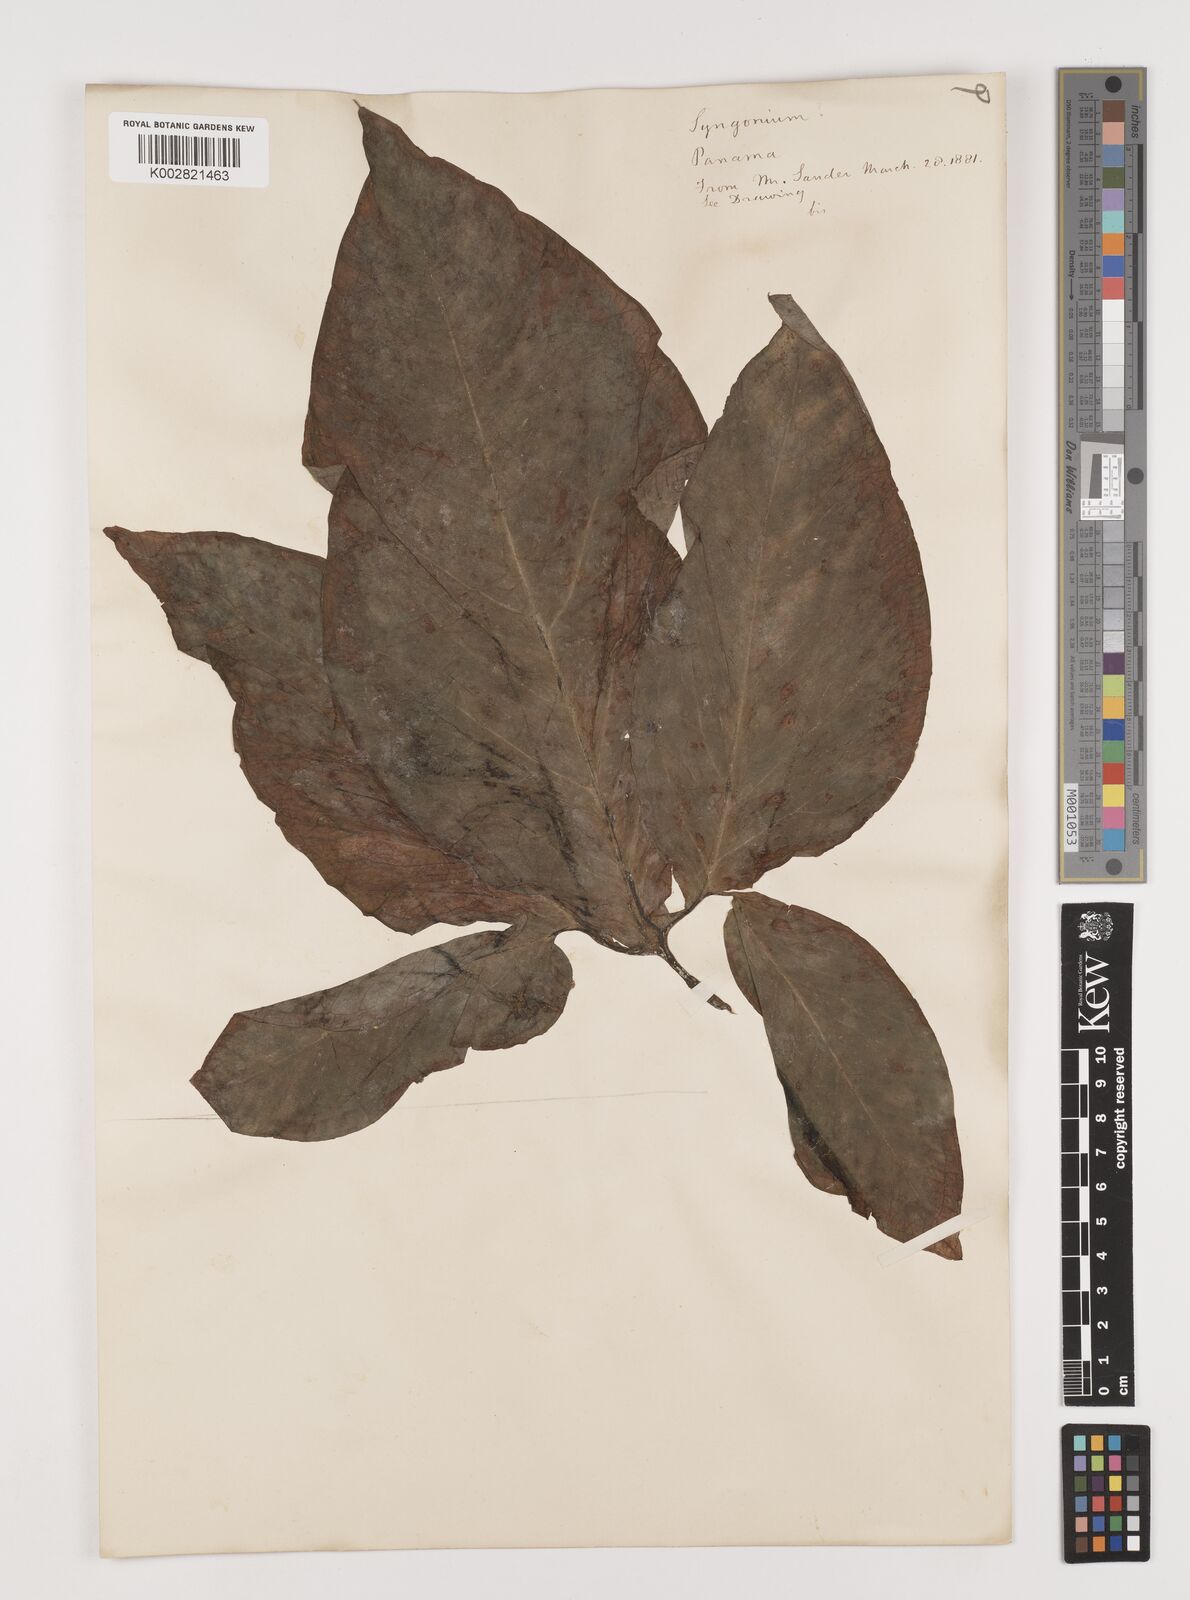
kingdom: Plantae
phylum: Tracheophyta
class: Liliopsida
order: Alismatales
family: Araceae
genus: Xanthosoma
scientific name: Xanthosoma wendlandii
